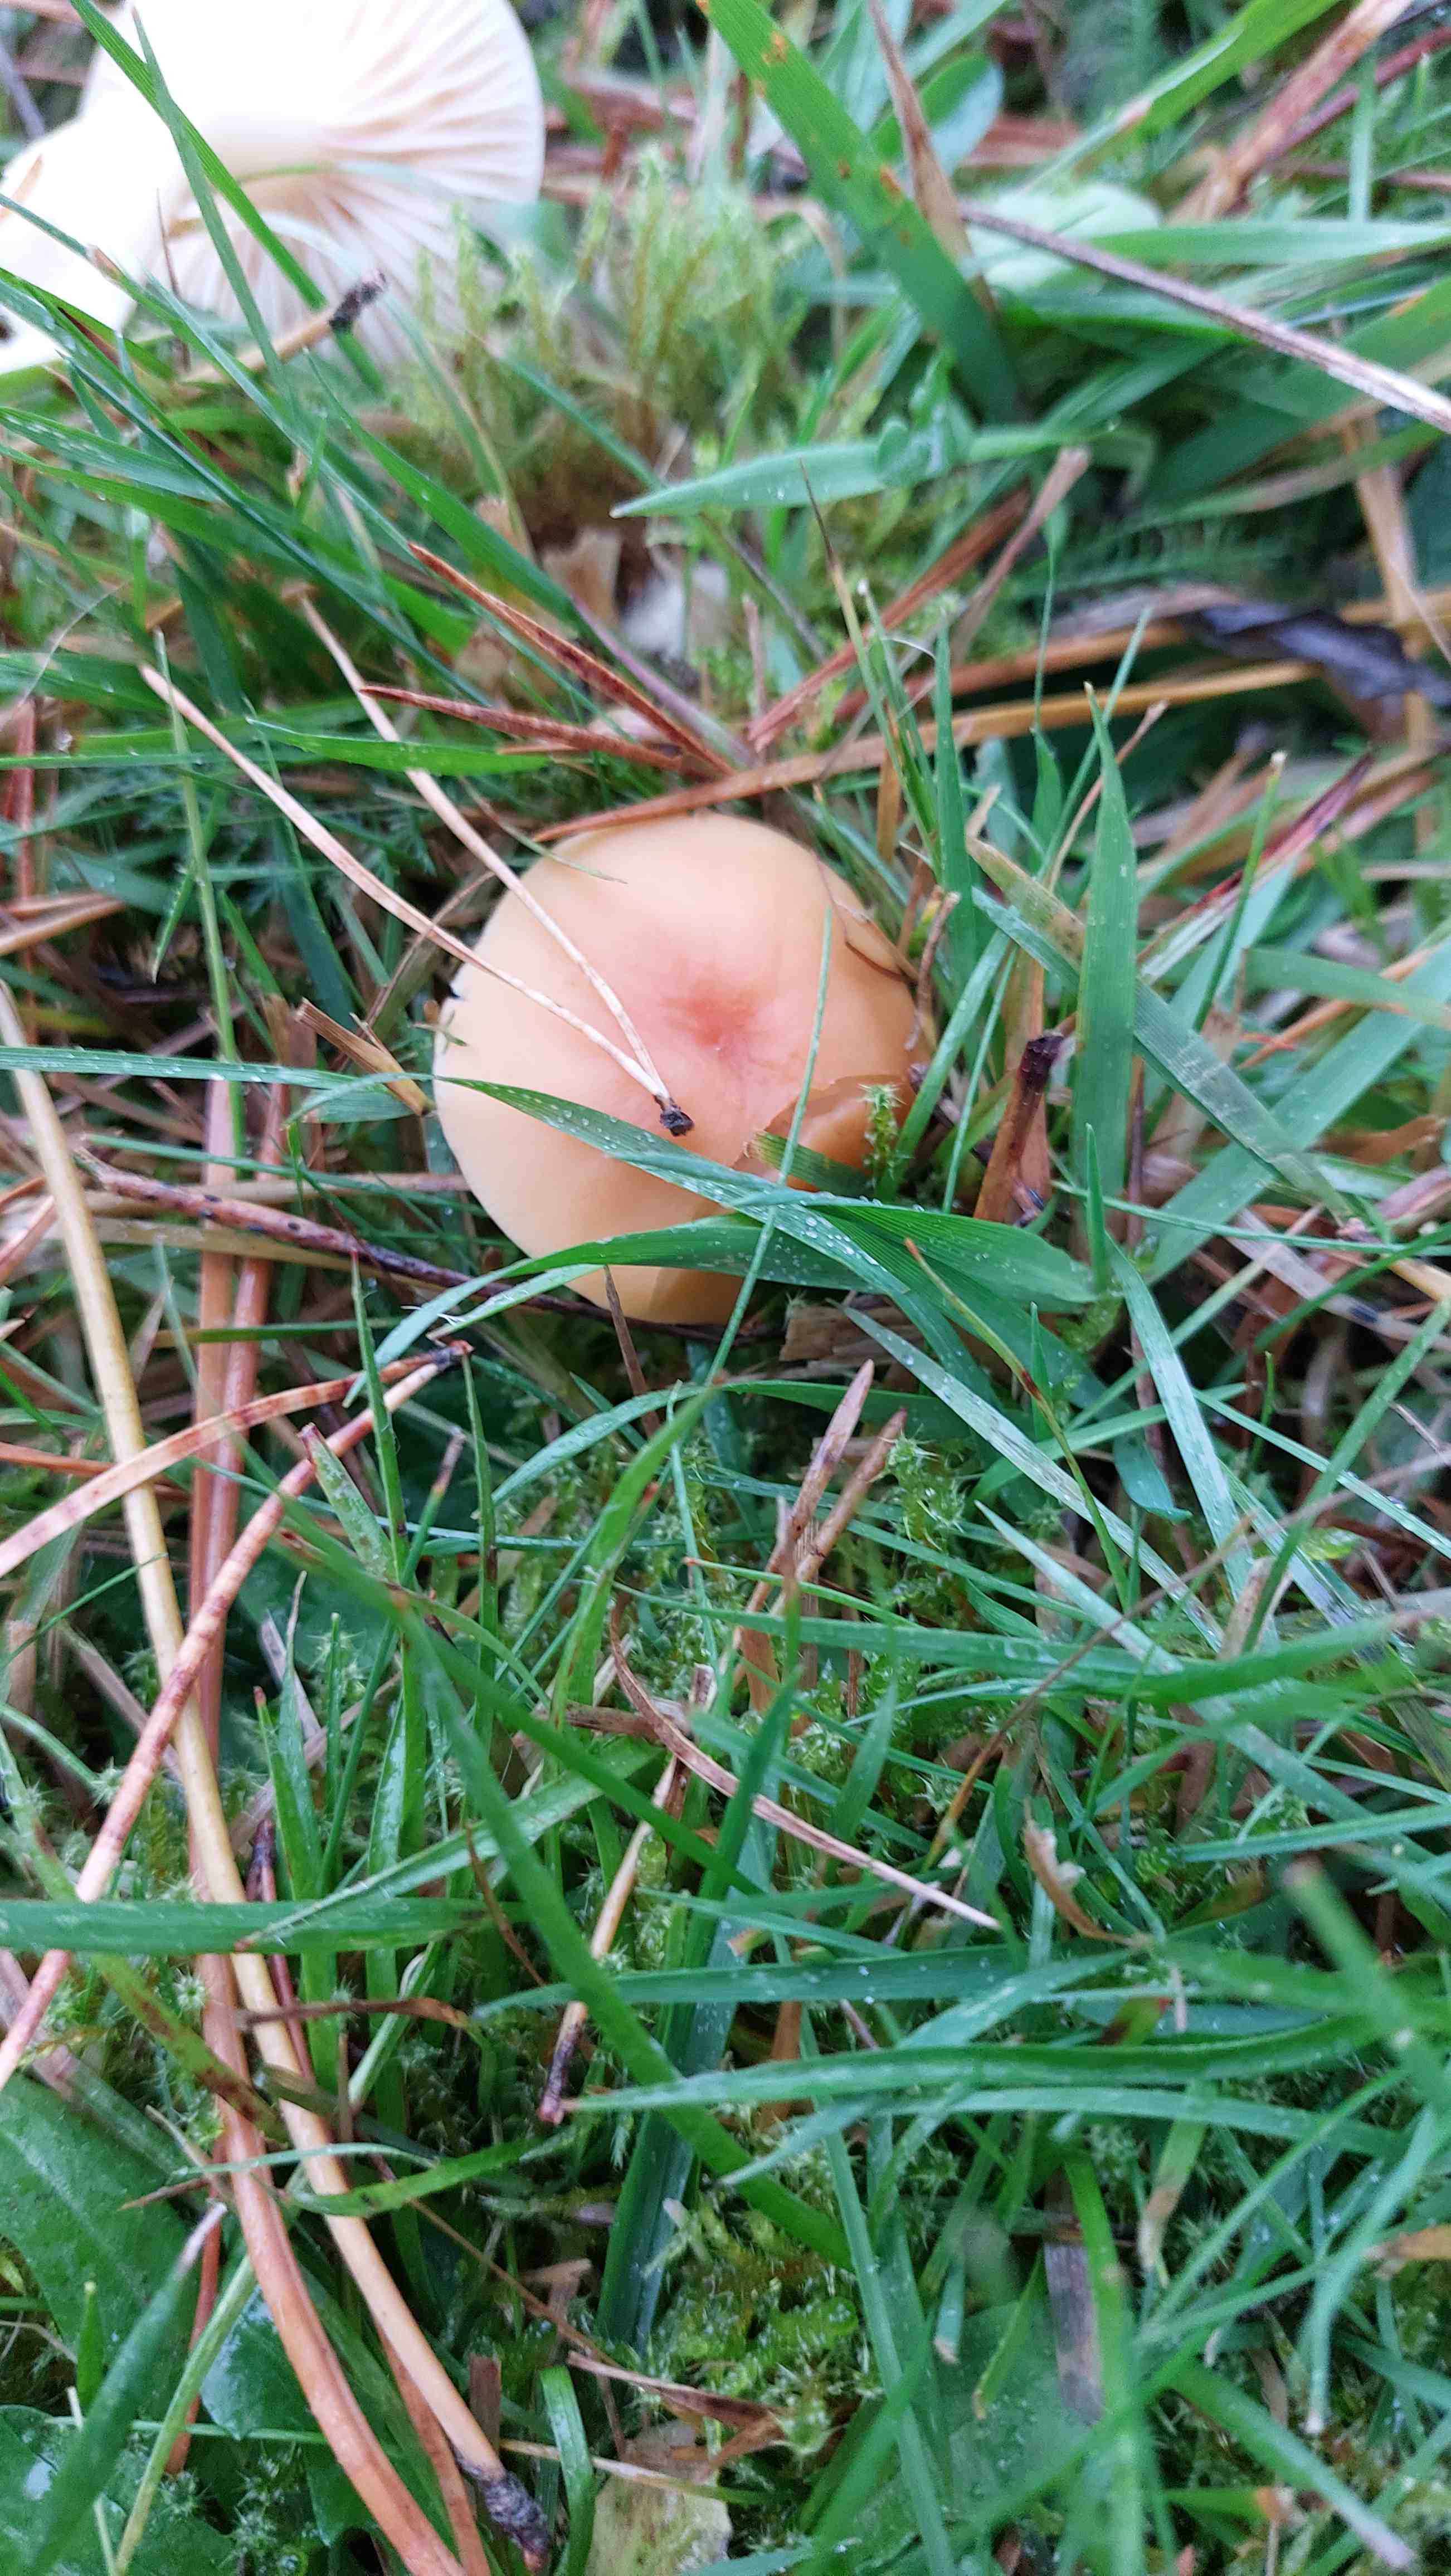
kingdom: Fungi
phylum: Basidiomycota
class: Agaricomycetes
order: Agaricales
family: Hygrophoraceae
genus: Cuphophyllus
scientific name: Cuphophyllus pratensis
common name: eng-vokshat
